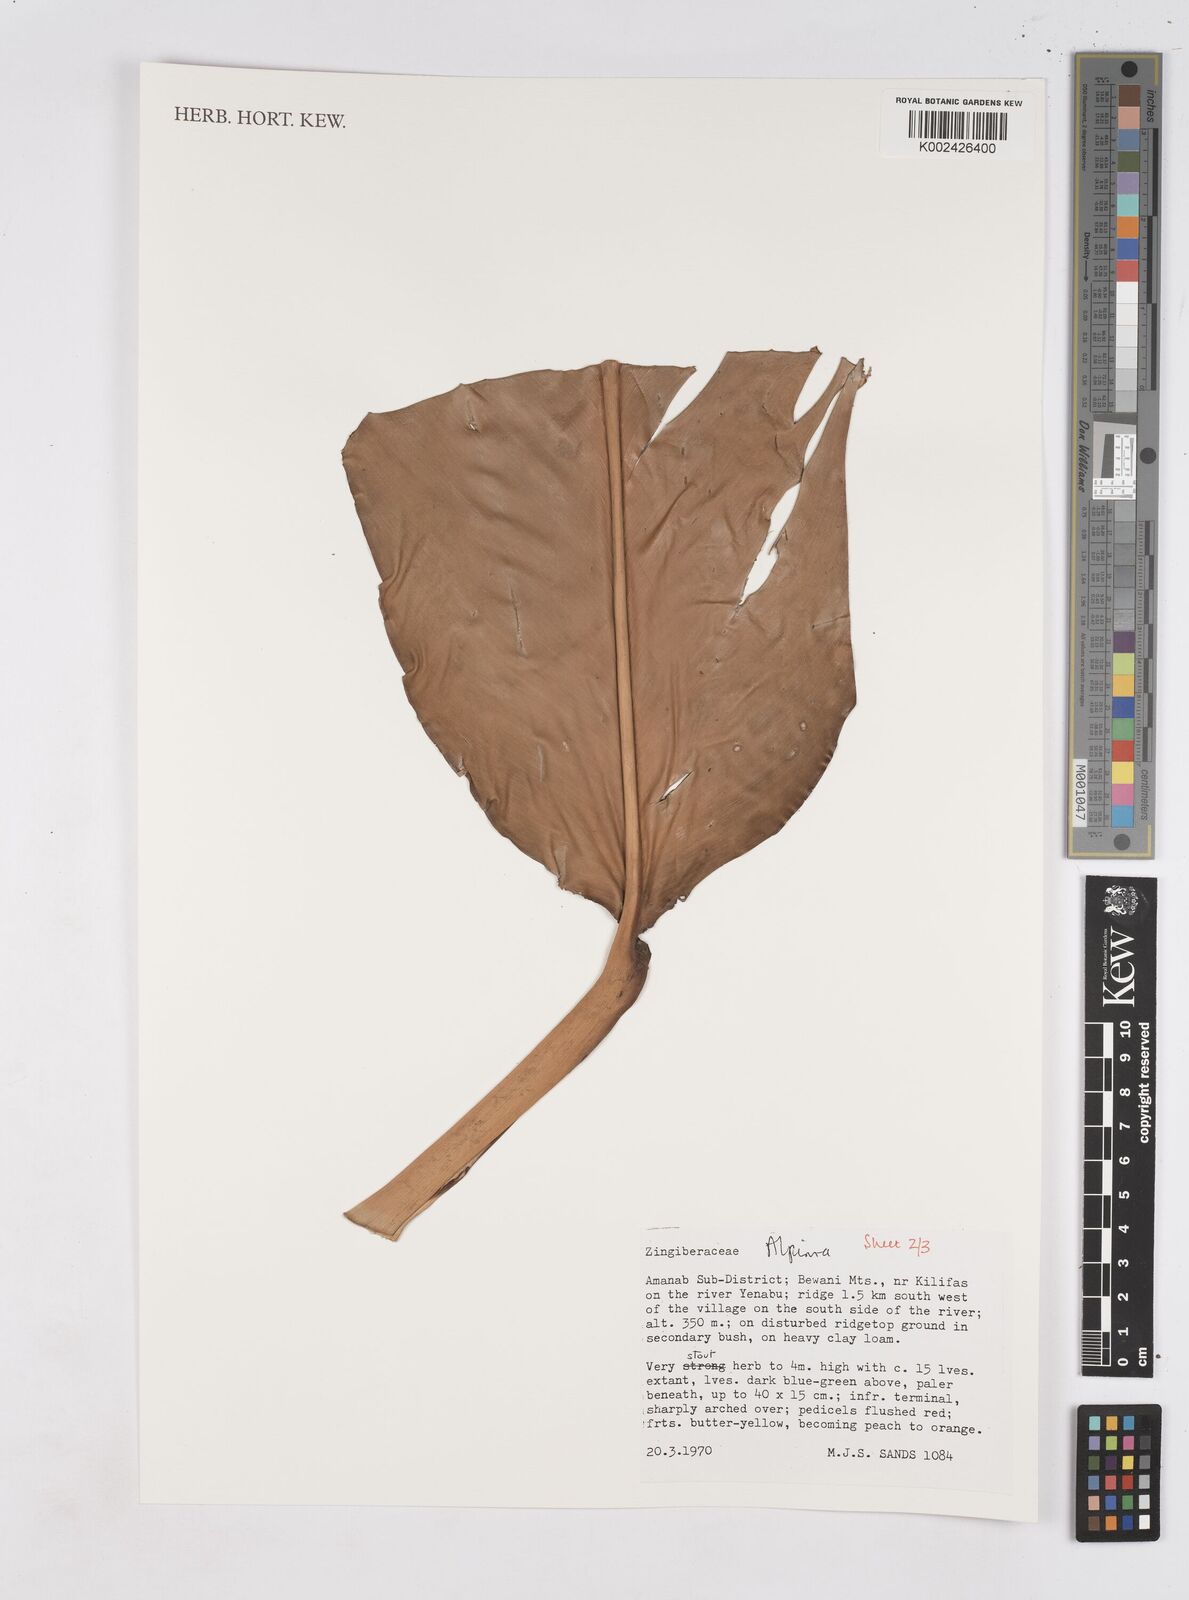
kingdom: Plantae
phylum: Tracheophyta
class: Liliopsida
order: Zingiberales
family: Zingiberaceae
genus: Pleuranthodium
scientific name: Pleuranthodium
